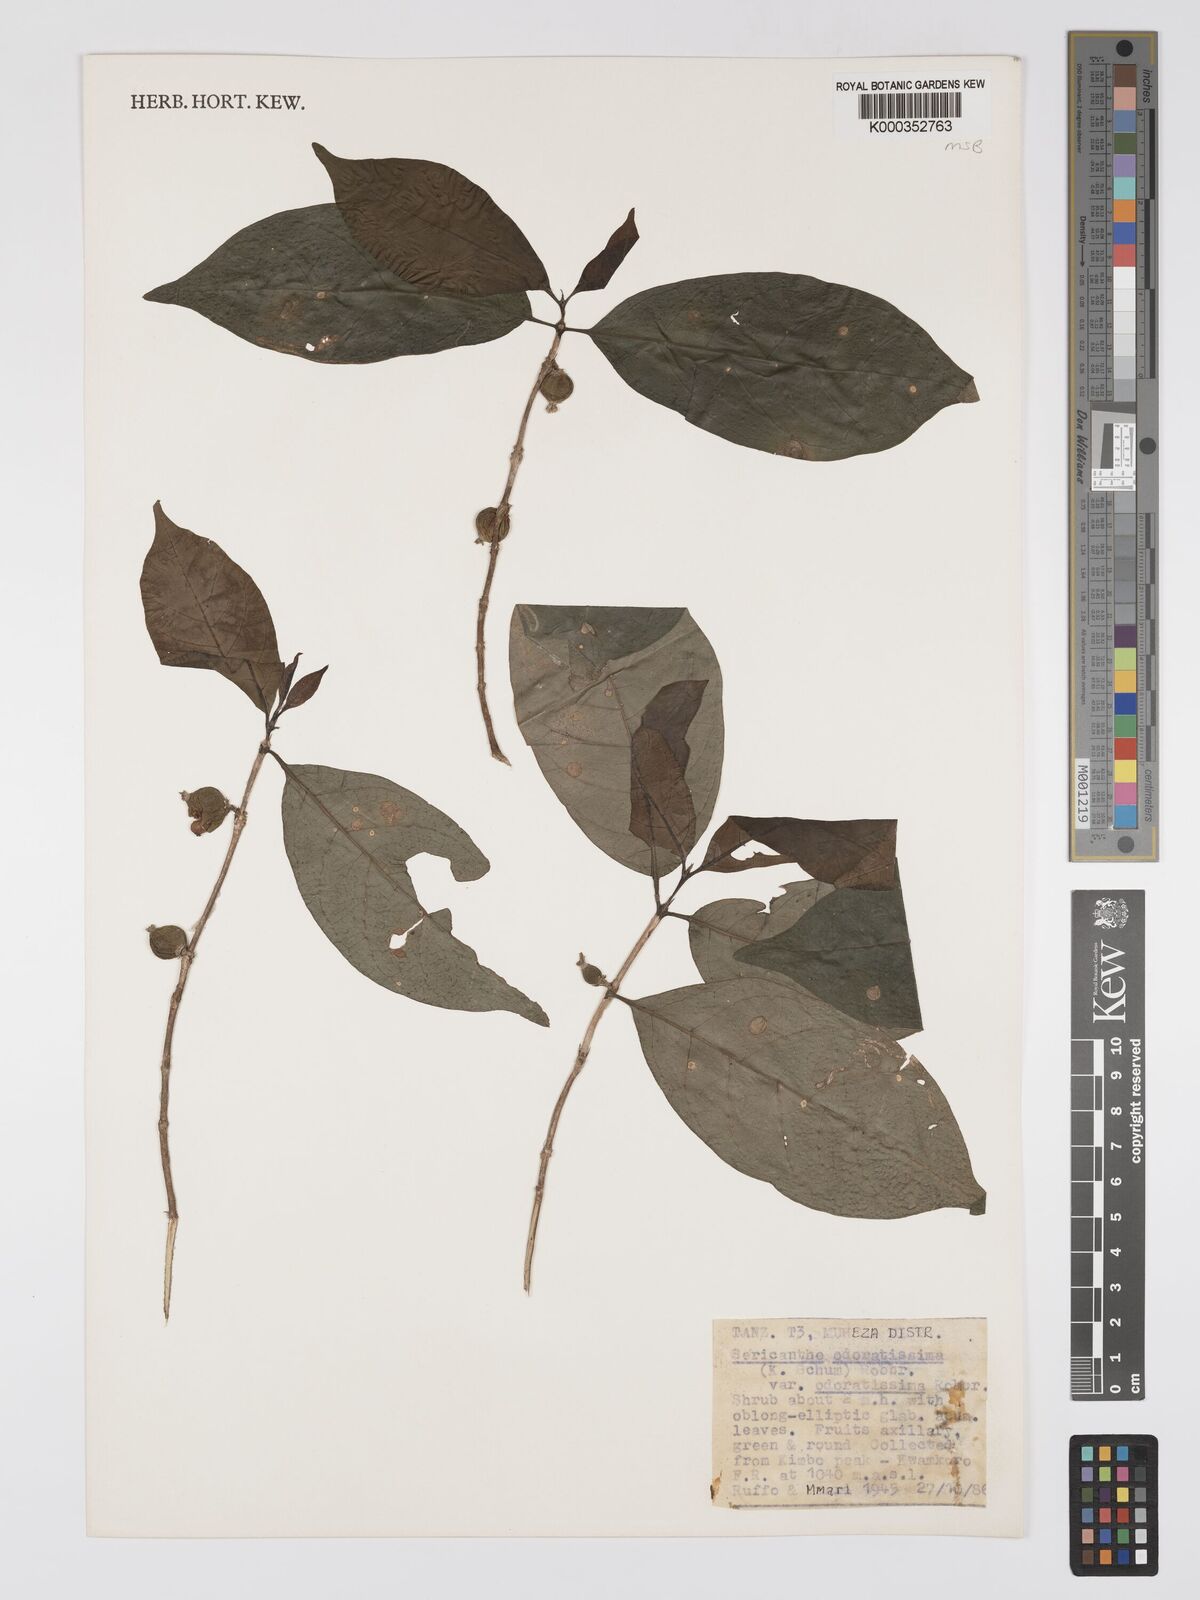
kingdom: Plantae
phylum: Tracheophyta
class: Magnoliopsida
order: Gentianales
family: Rubiaceae
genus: Sericanthe
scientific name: Sericanthe odoratissima
